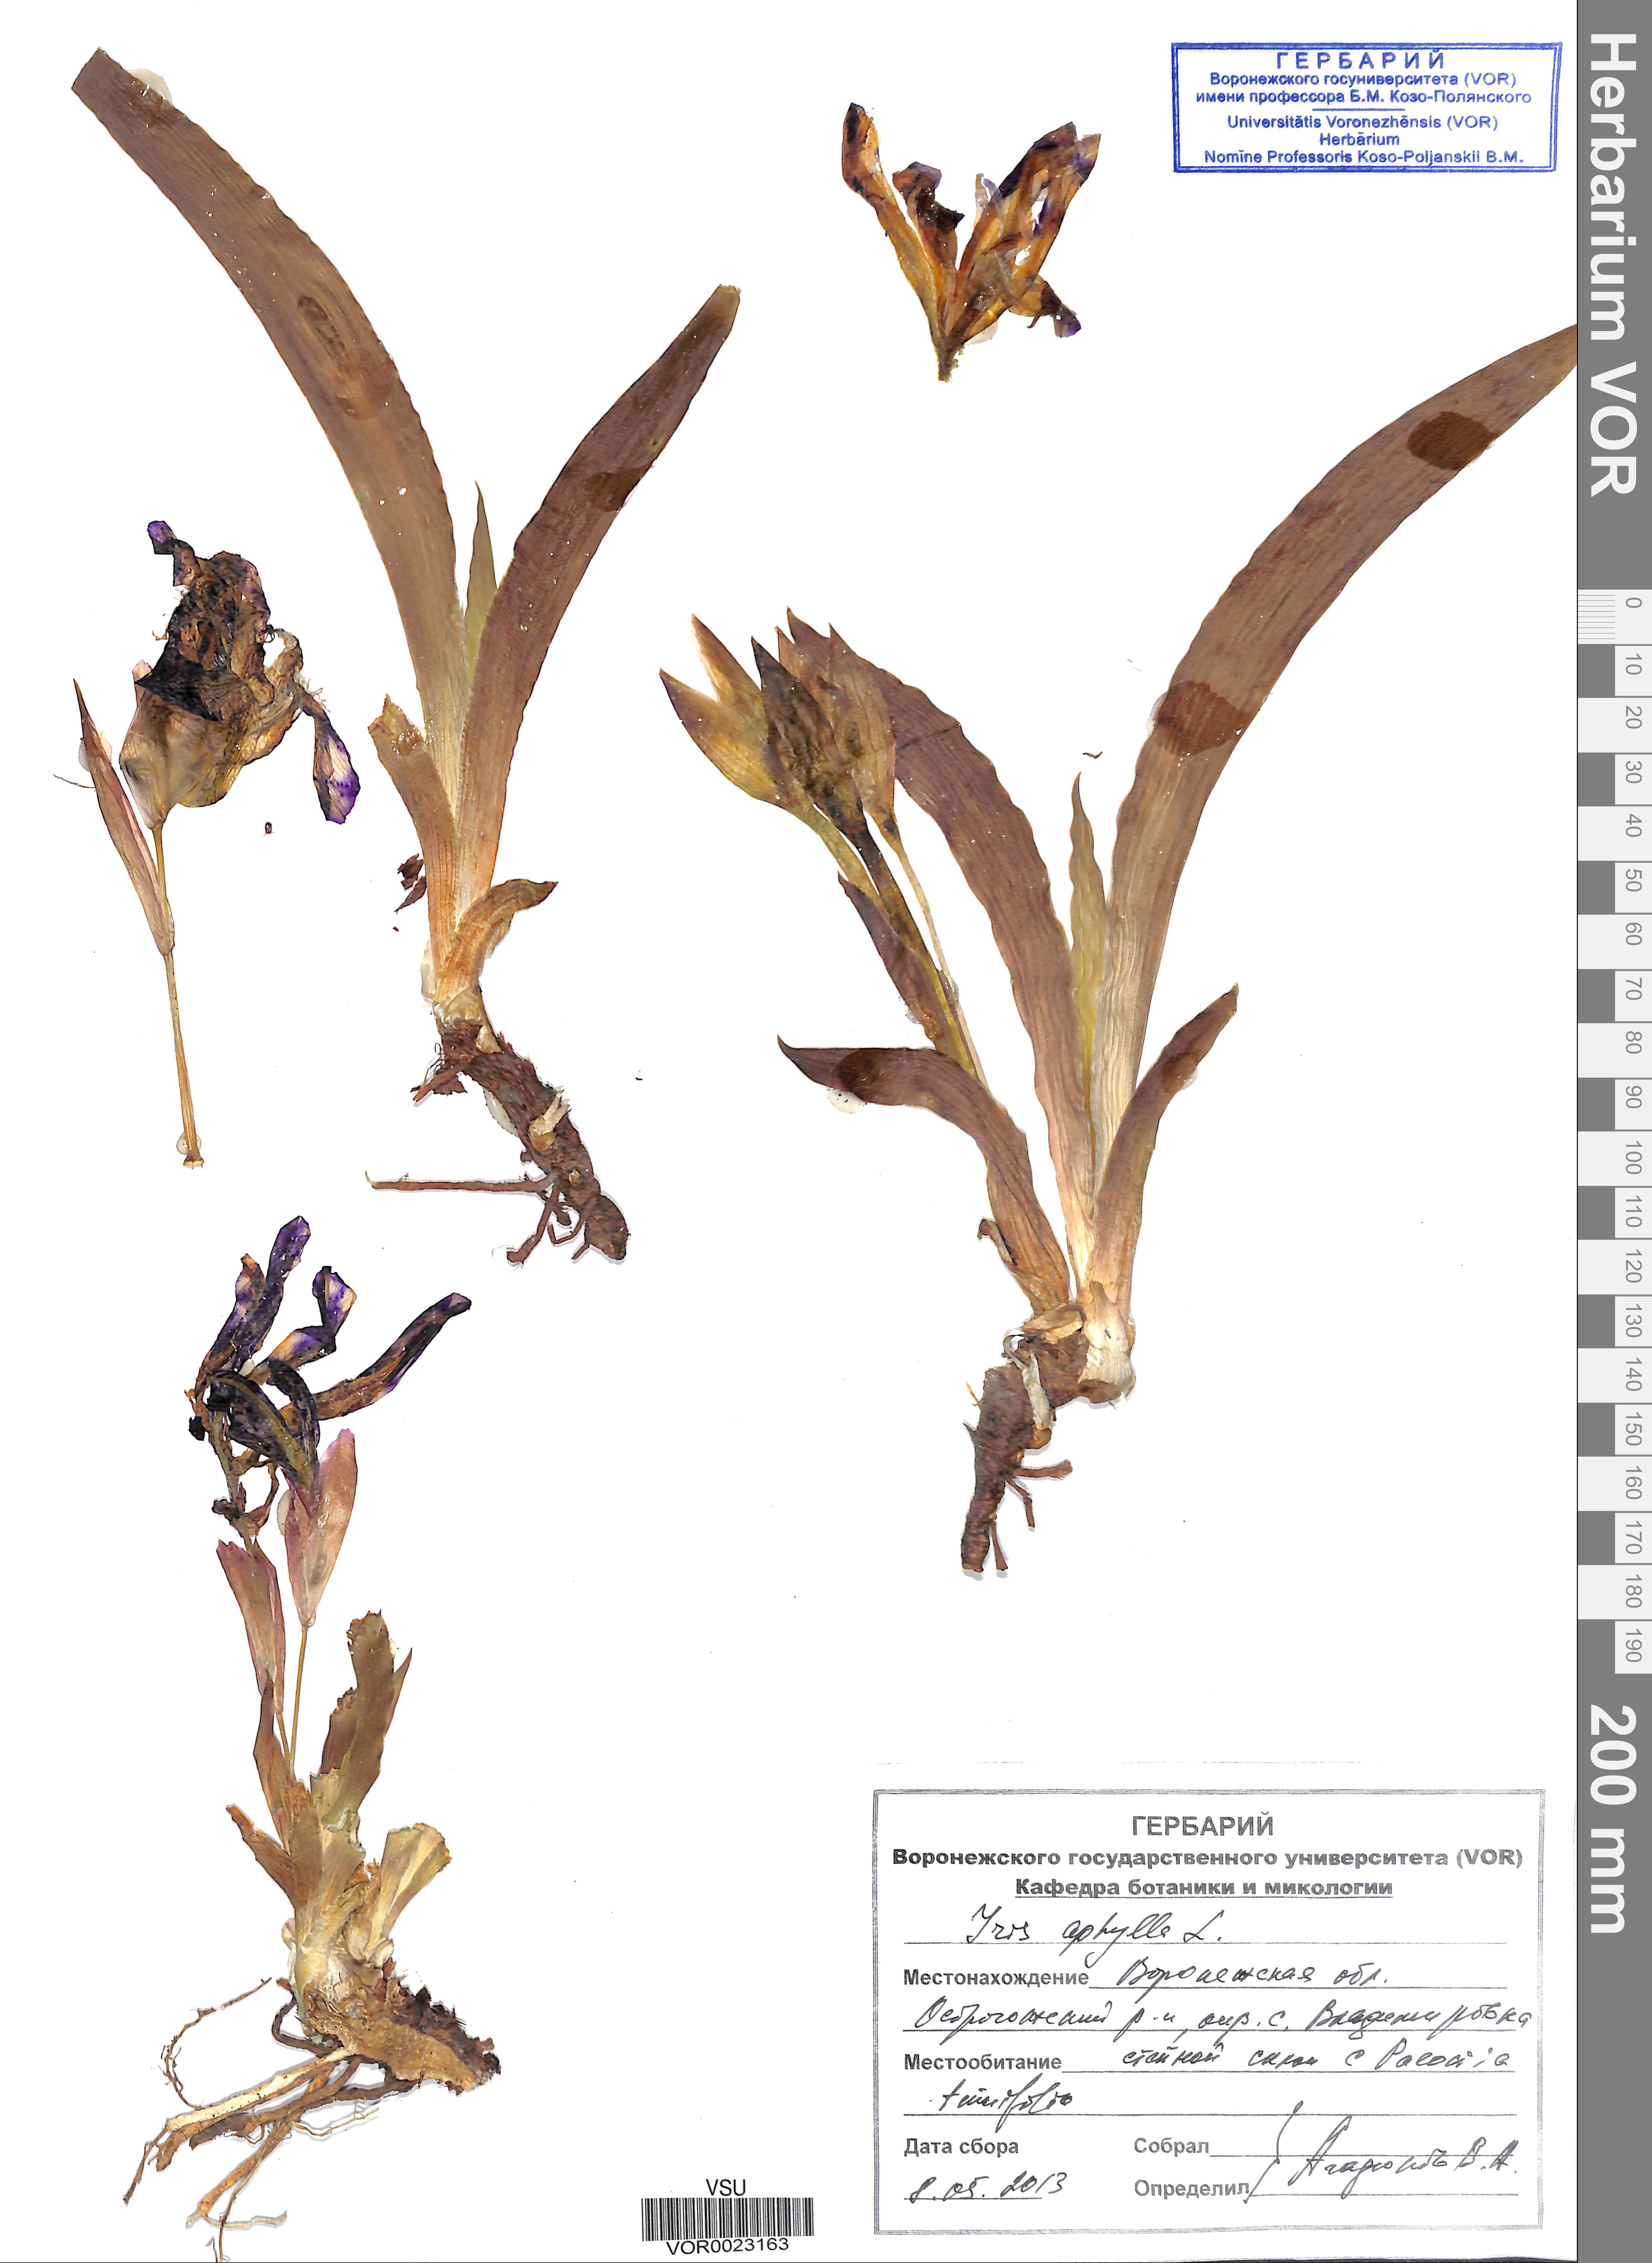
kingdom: Plantae
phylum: Tracheophyta
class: Liliopsida
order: Asparagales
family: Iridaceae
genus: Iris
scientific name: Iris aphylla
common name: Stool iris
